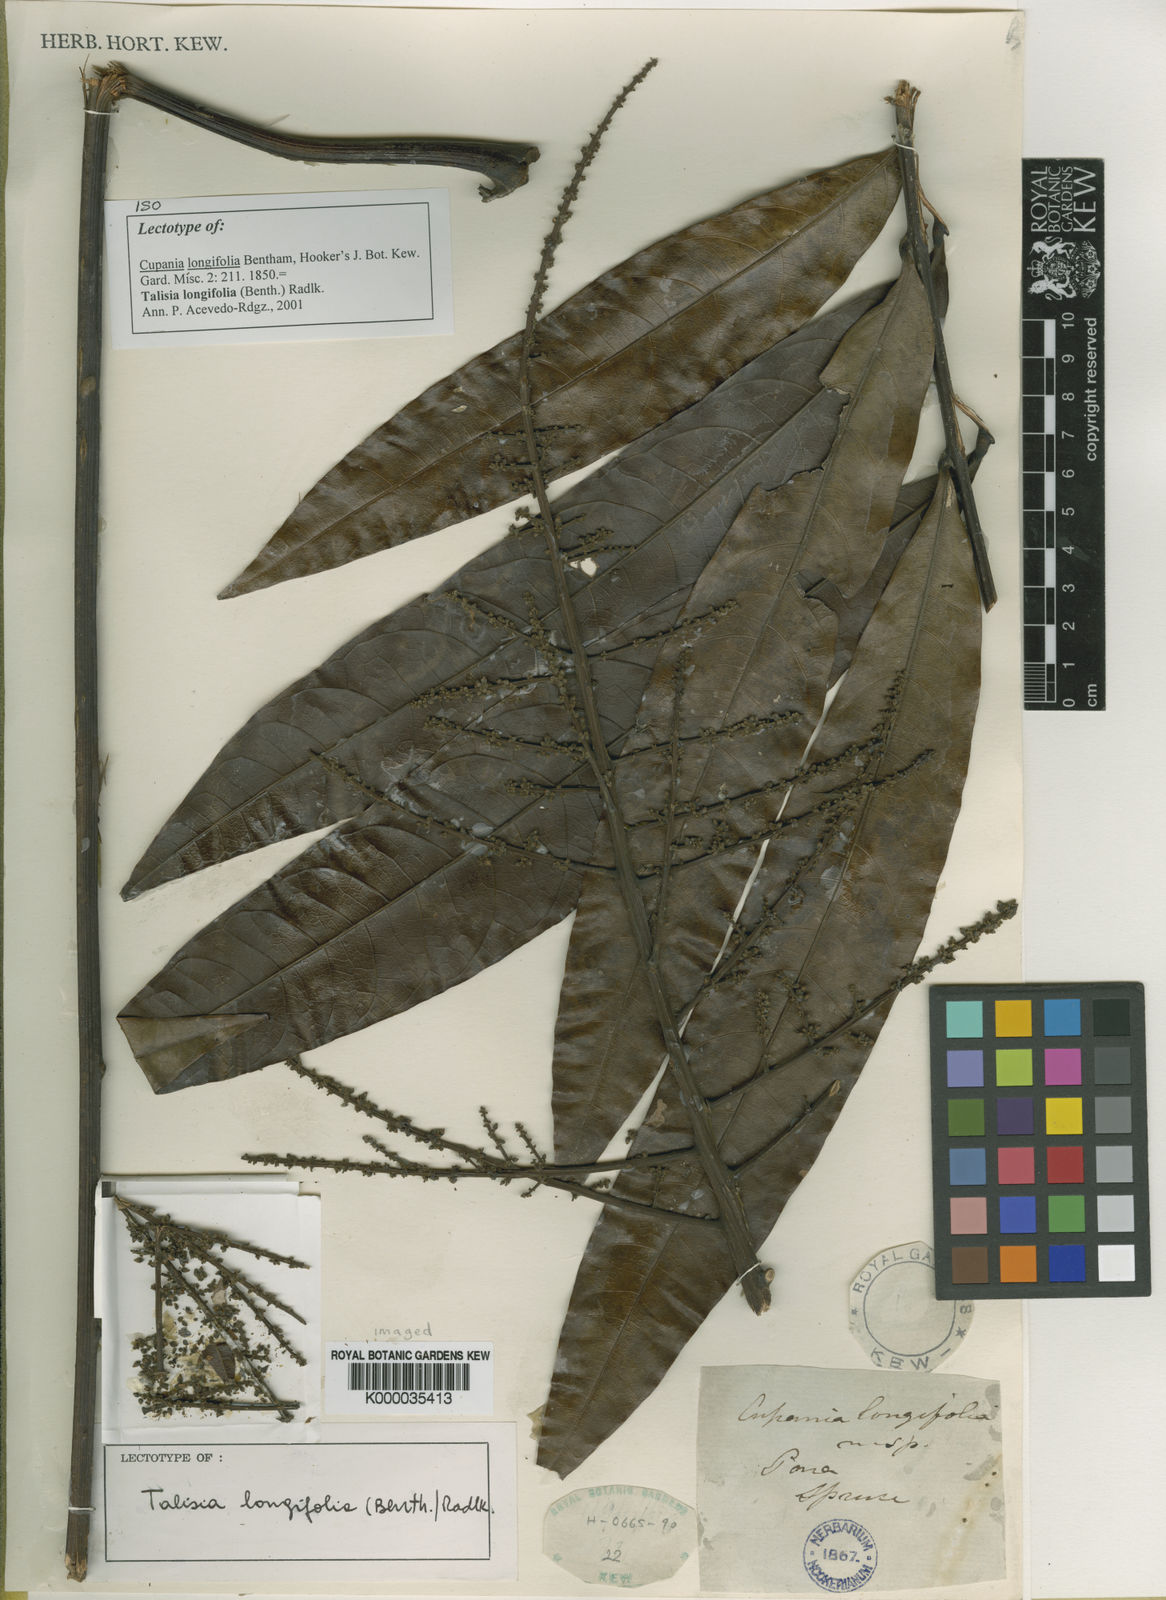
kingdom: Plantae
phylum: Tracheophyta
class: Magnoliopsida
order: Sapindales
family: Sapindaceae
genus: Talisia
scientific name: Talisia longifolia
